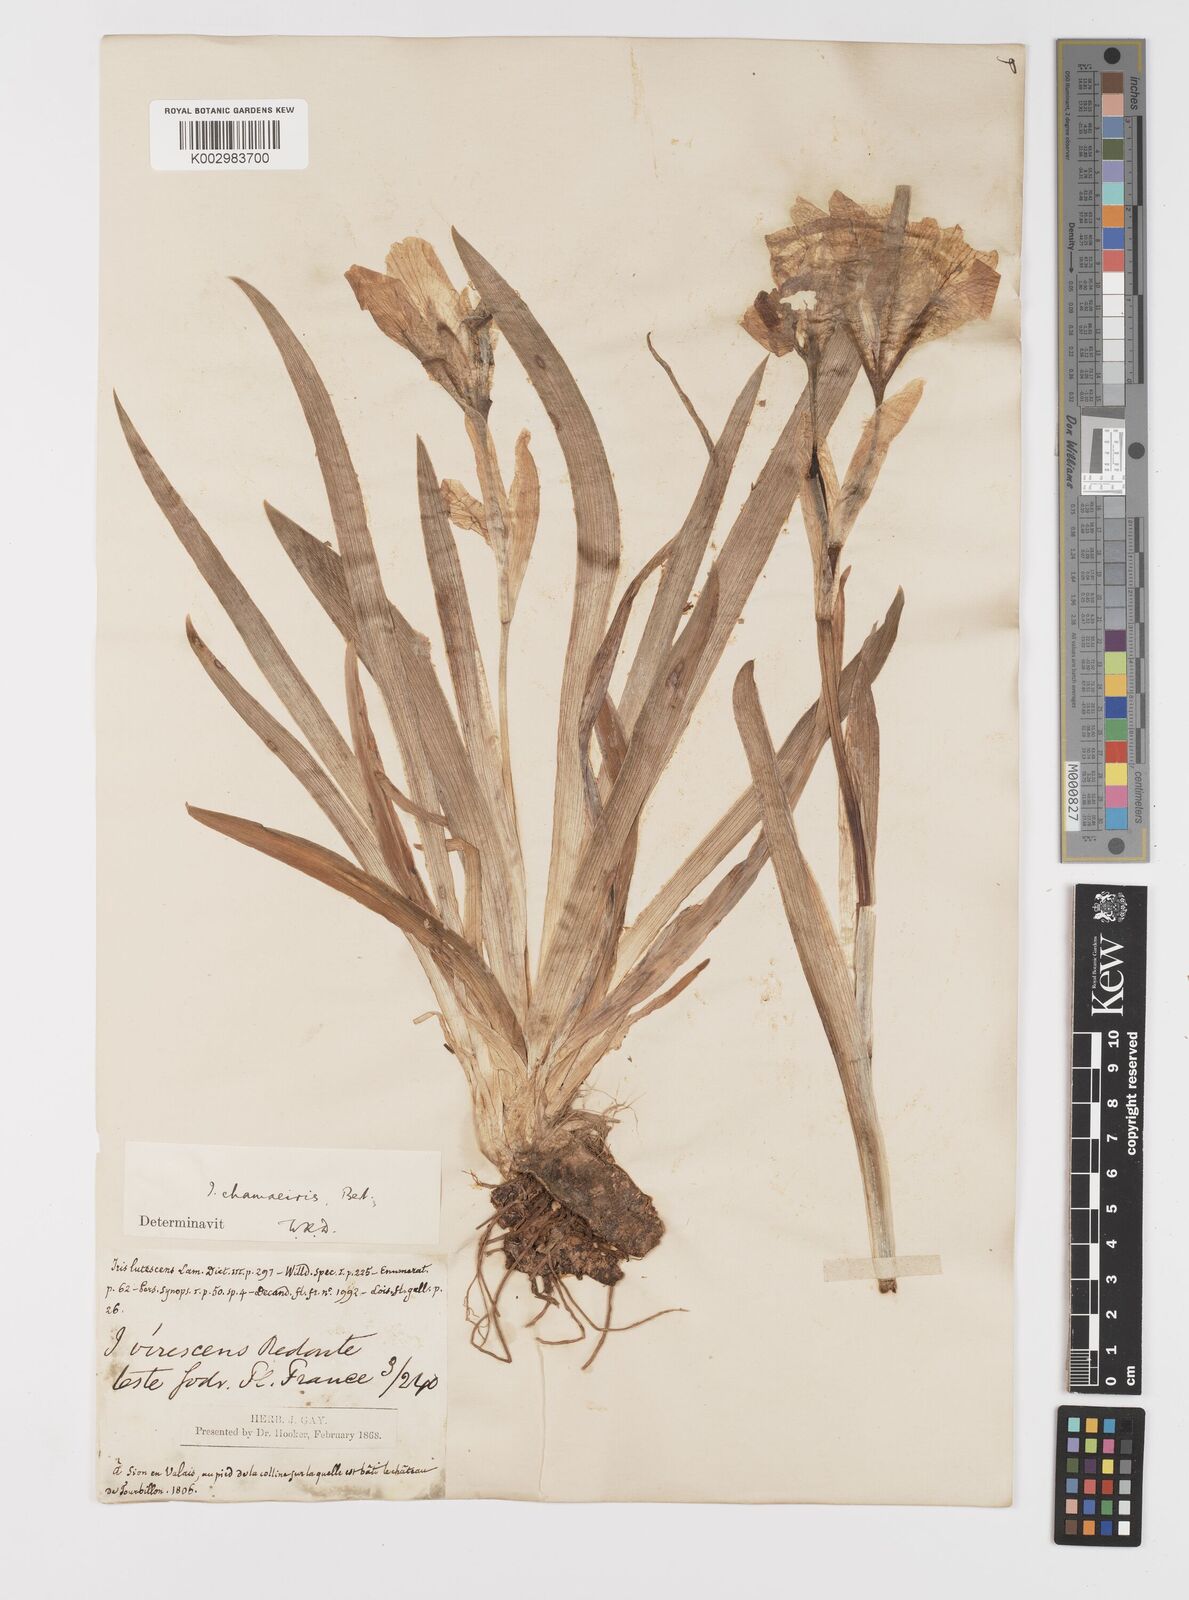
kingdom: Plantae
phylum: Tracheophyta
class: Liliopsida
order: Asparagales
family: Iridaceae
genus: Iris
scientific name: Iris lutescens
